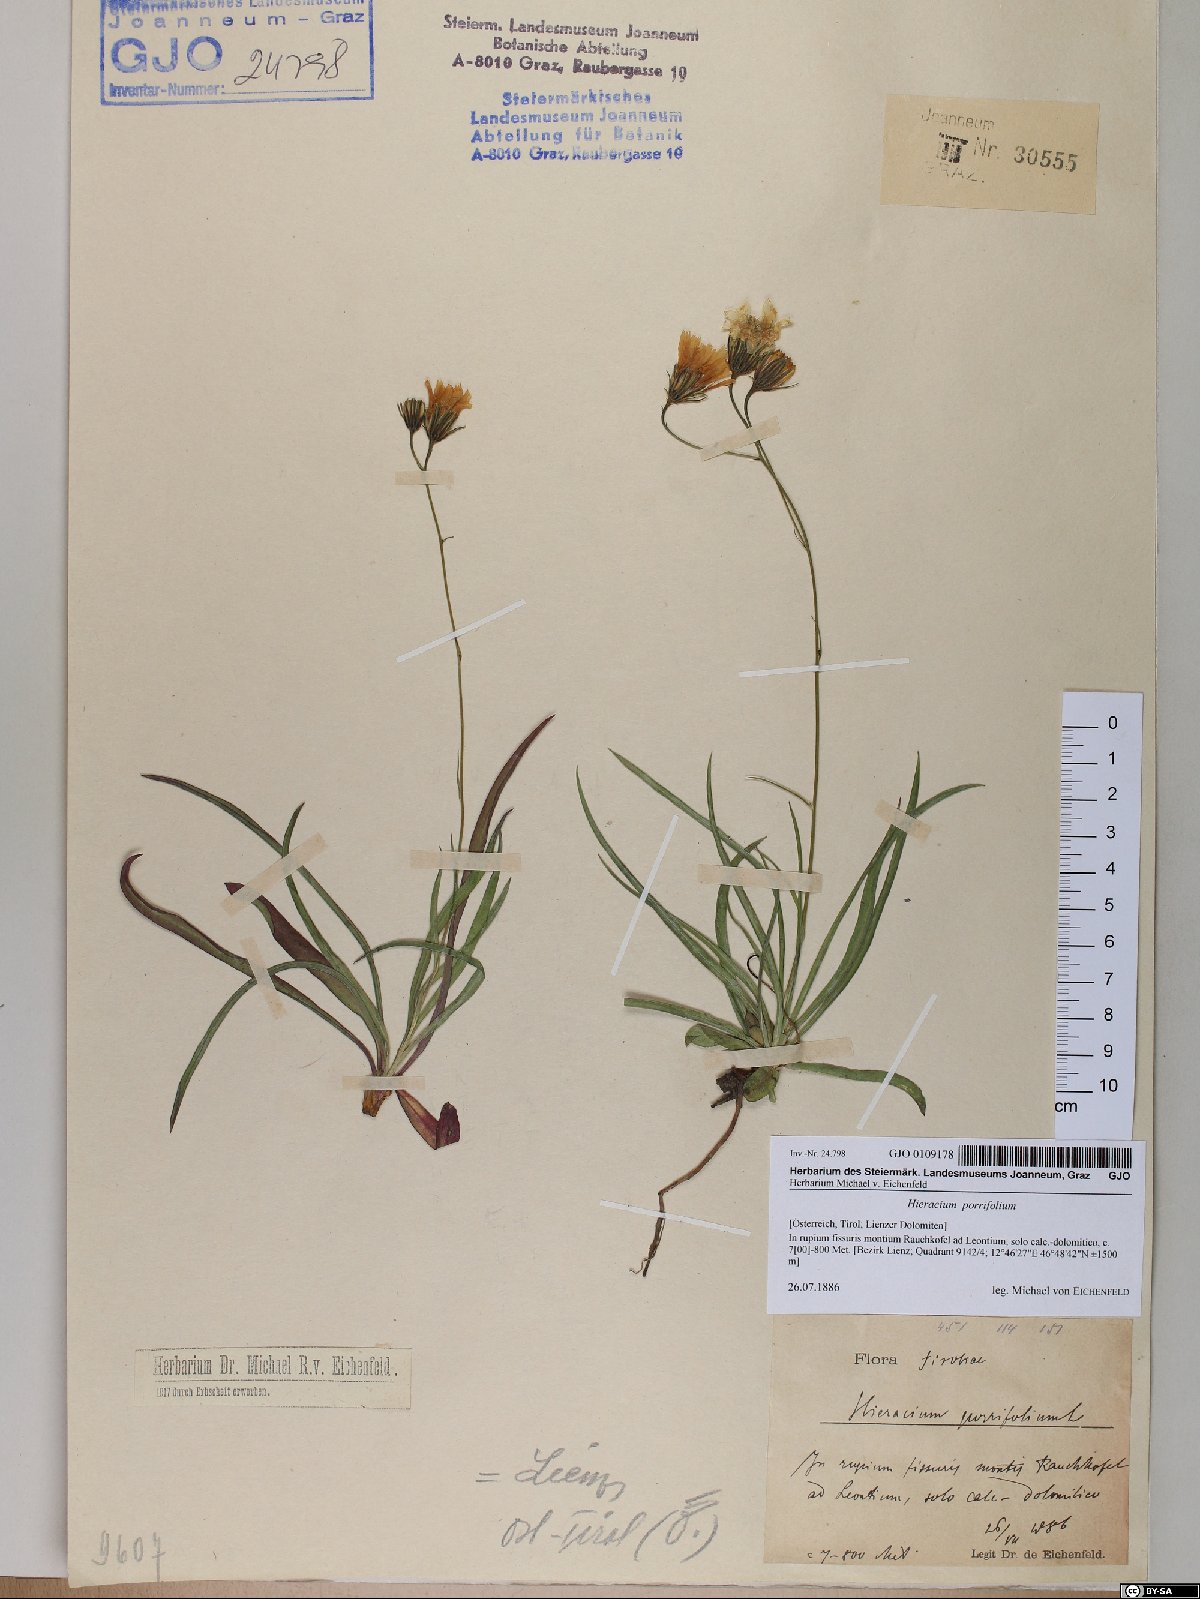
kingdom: Plantae
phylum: Tracheophyta
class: Magnoliopsida
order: Asterales
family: Asteraceae
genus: Hieracium
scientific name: Hieracium porrifolium
